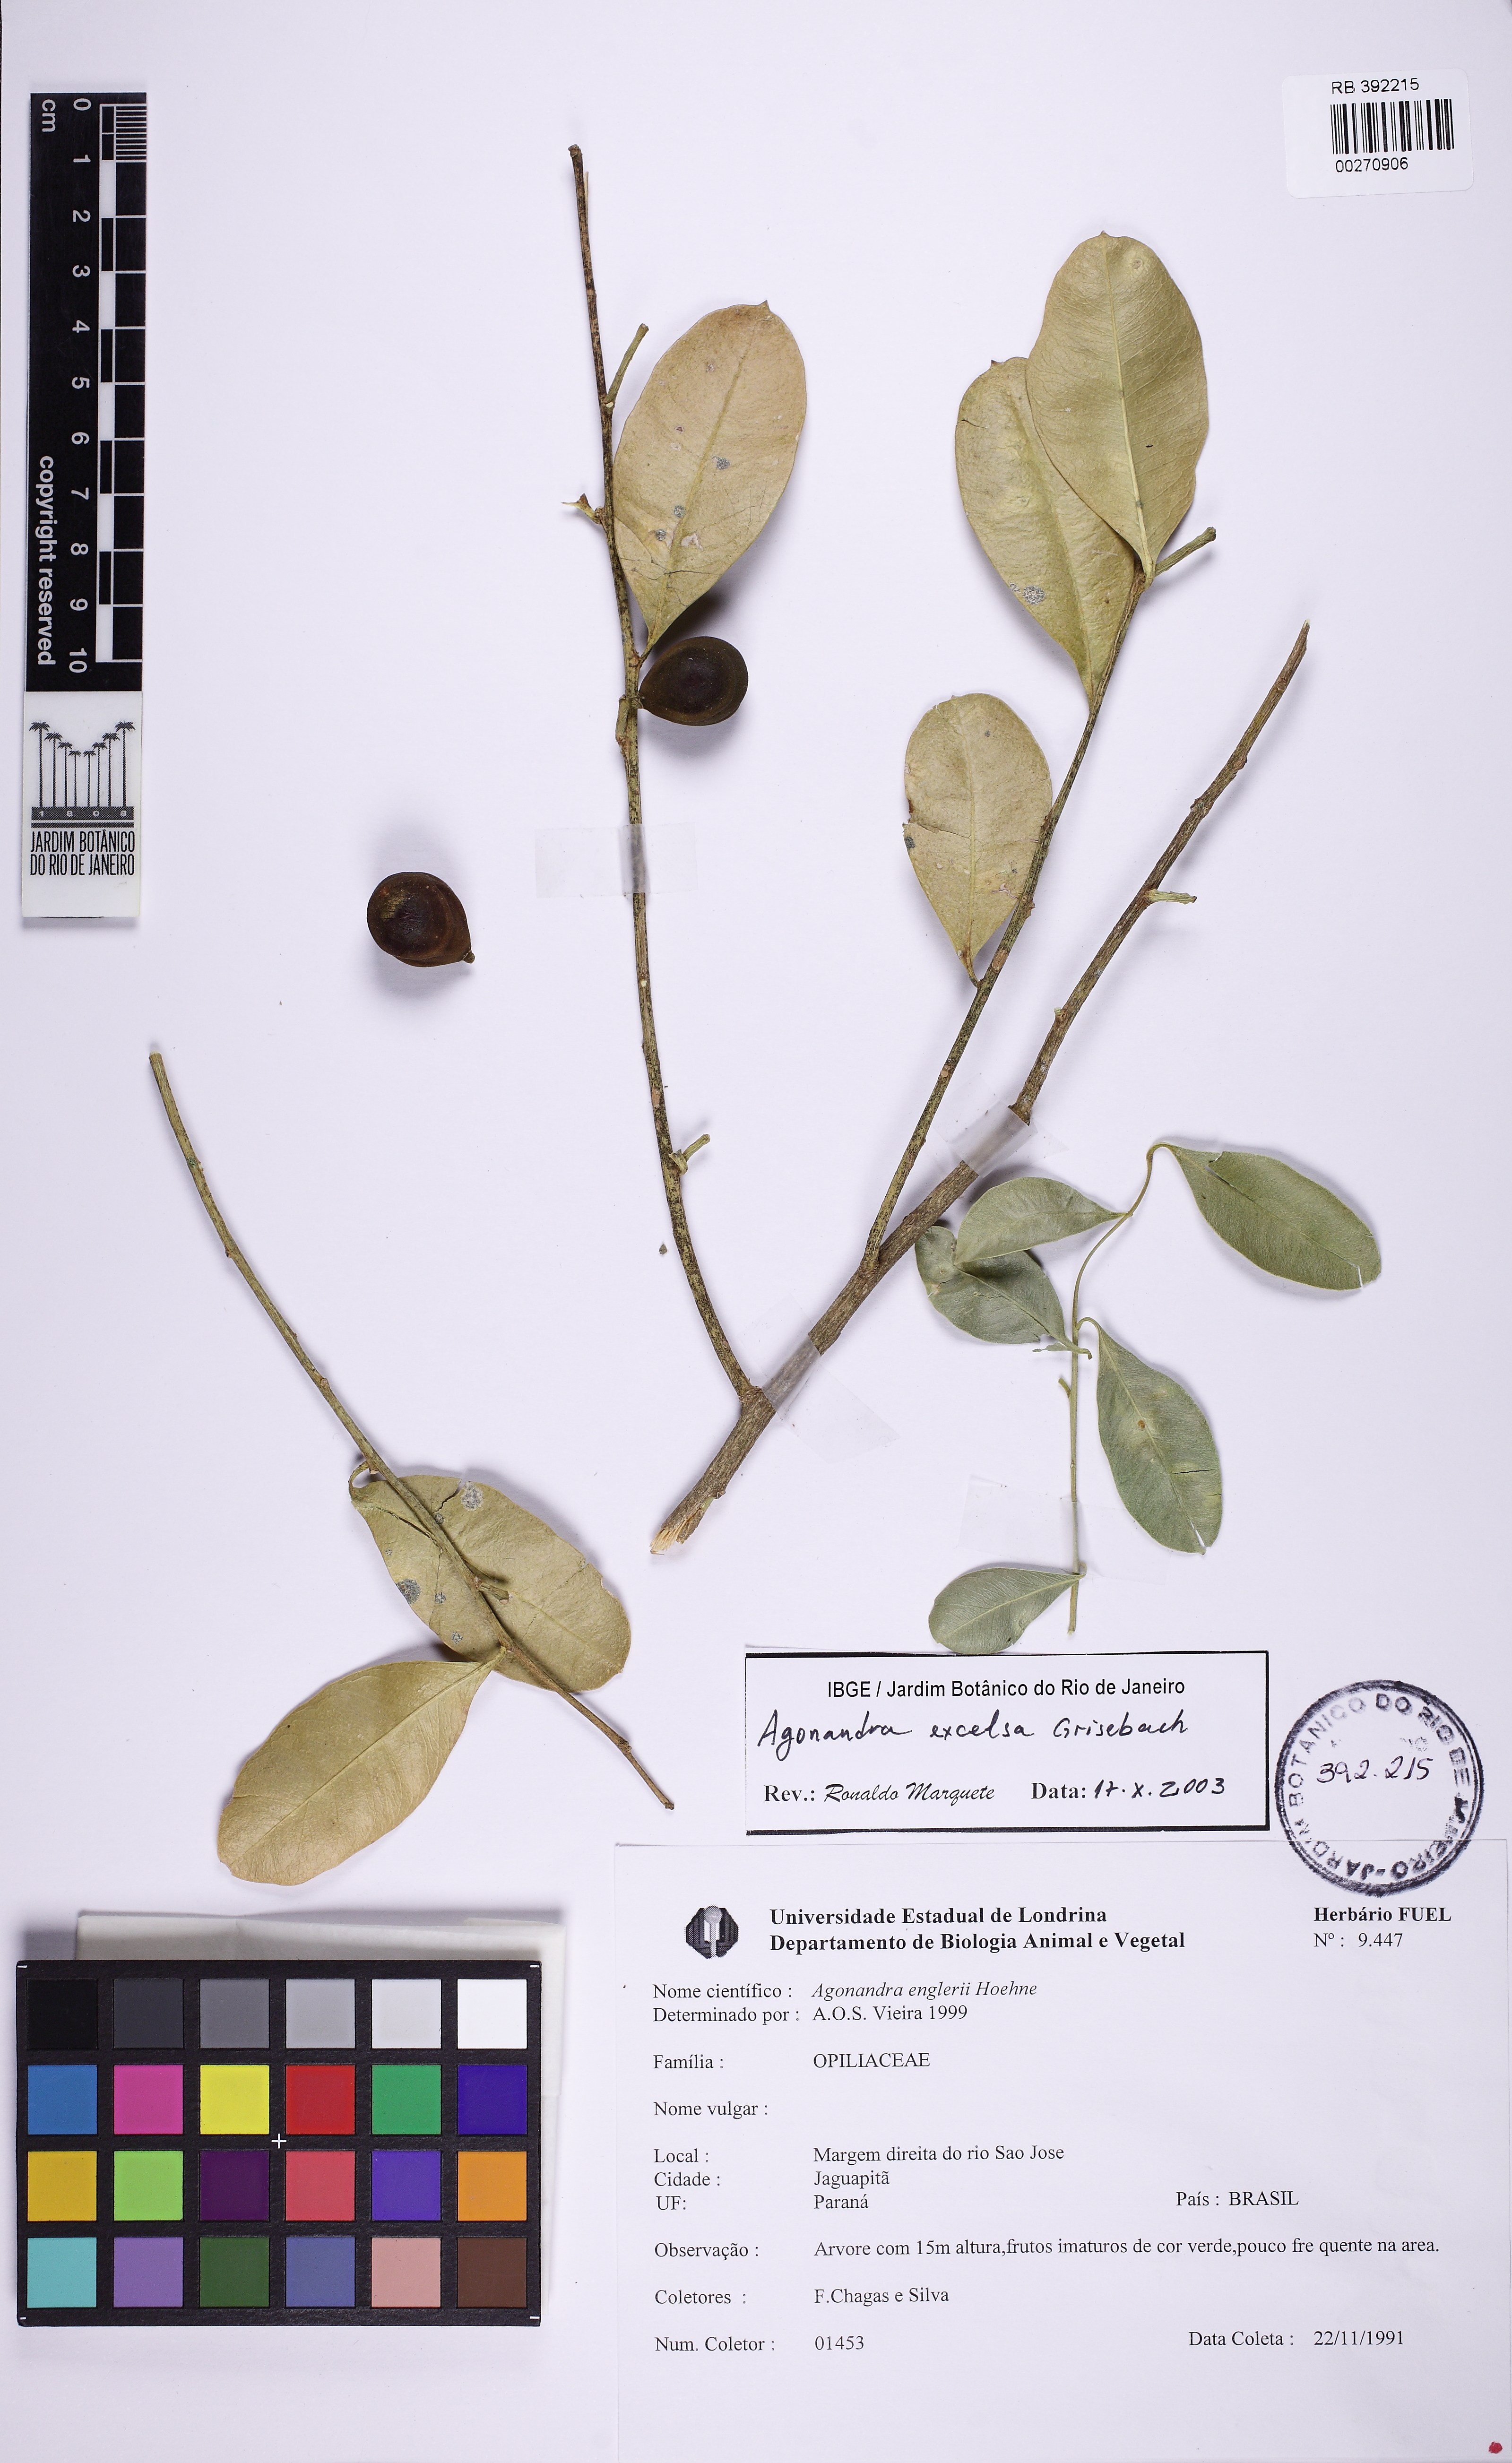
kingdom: Plantae
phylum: Tracheophyta
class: Magnoliopsida
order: Santalales
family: Opiliaceae
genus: Agonandra
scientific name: Agonandra excelsa
